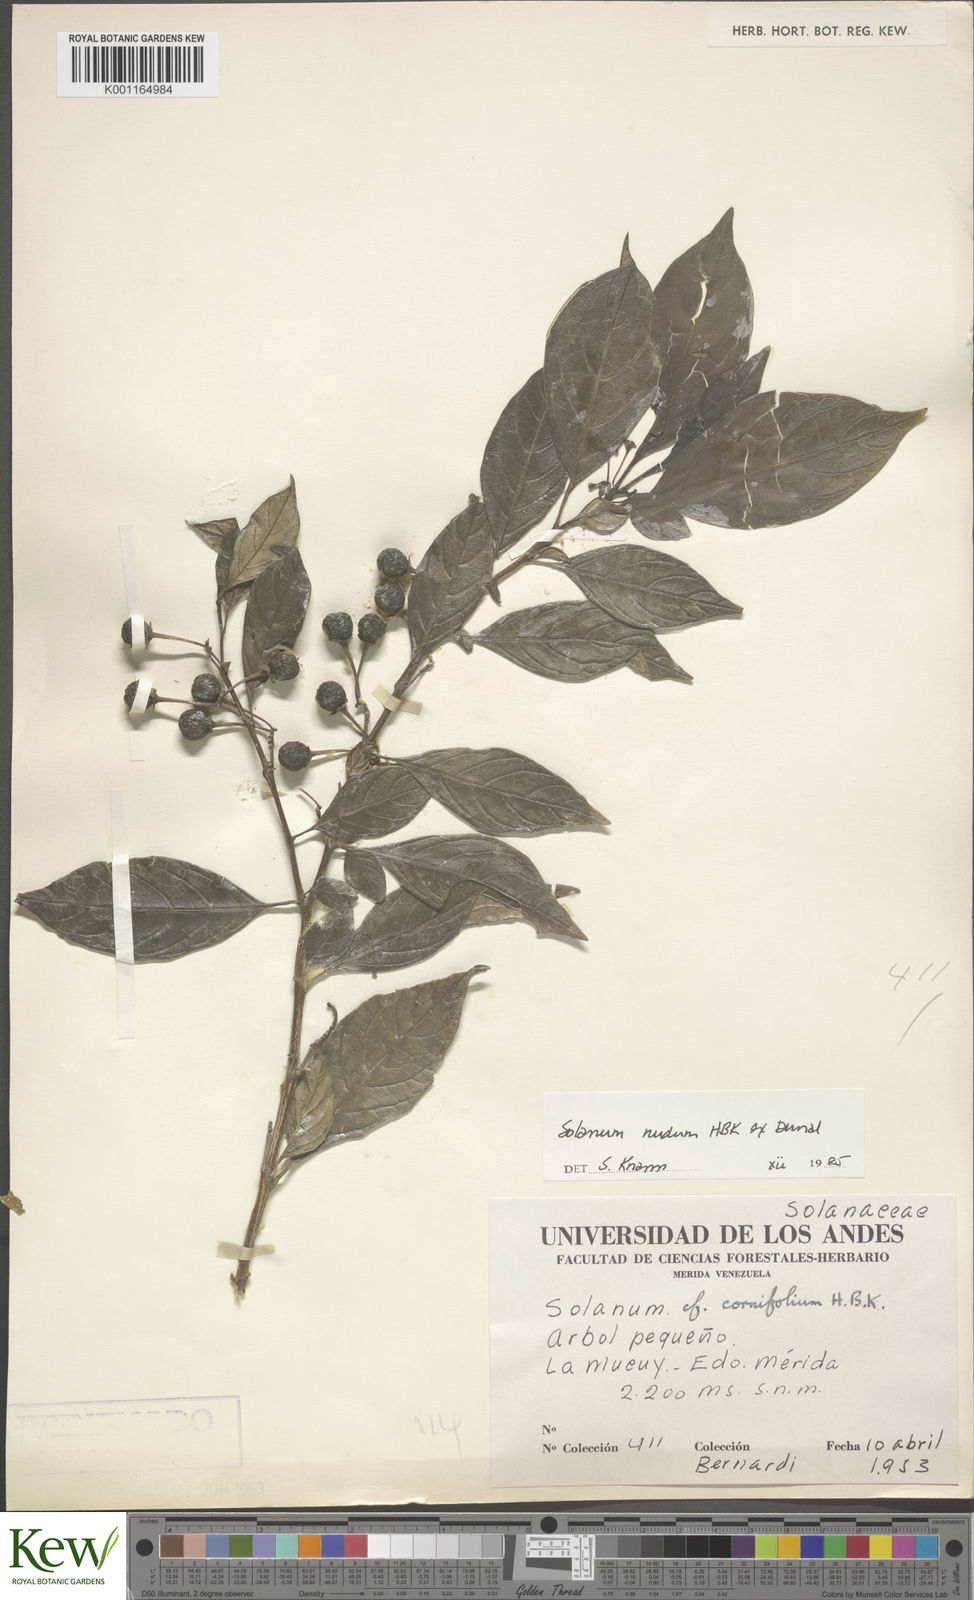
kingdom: Plantae
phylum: Tracheophyta
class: Magnoliopsida
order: Solanales
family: Solanaceae
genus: Solanum
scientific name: Solanum nudum
